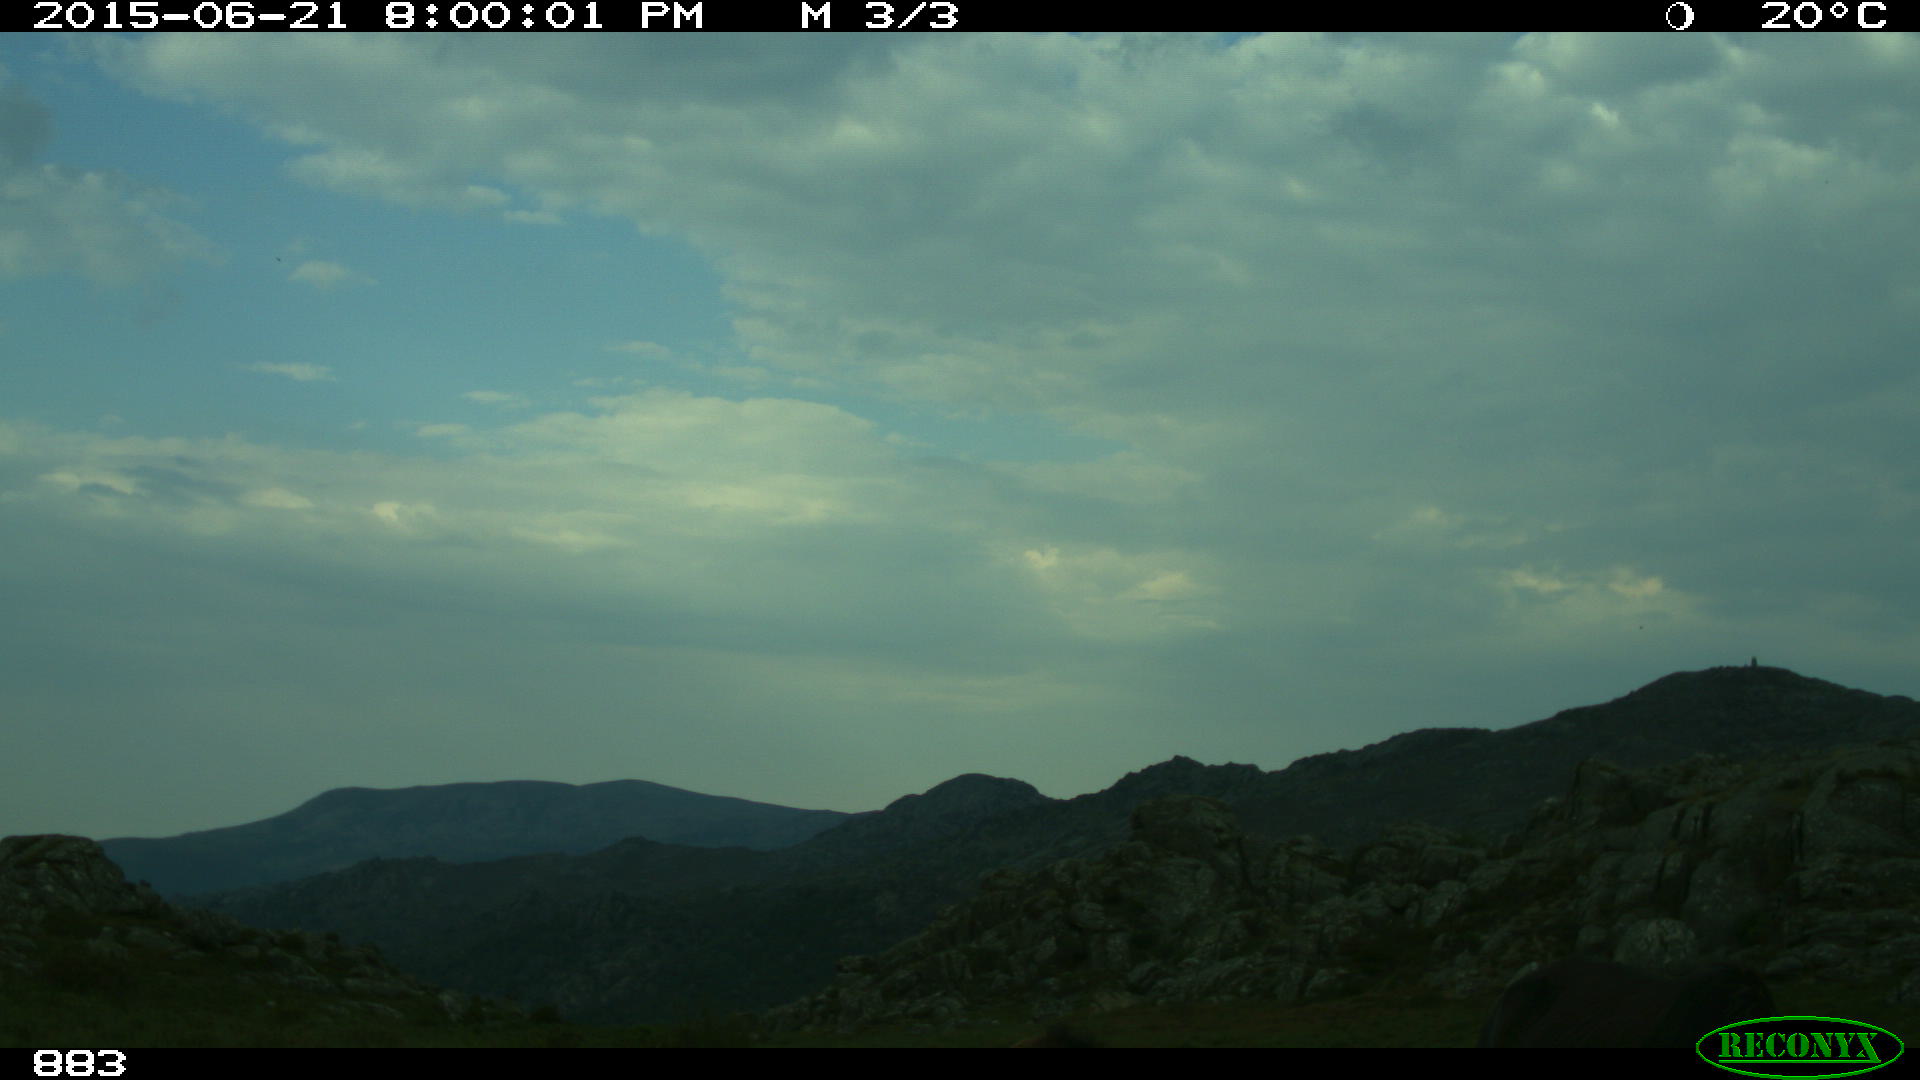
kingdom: Animalia
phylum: Chordata
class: Mammalia
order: Perissodactyla
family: Equidae
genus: Equus
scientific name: Equus caballus
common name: Horse
